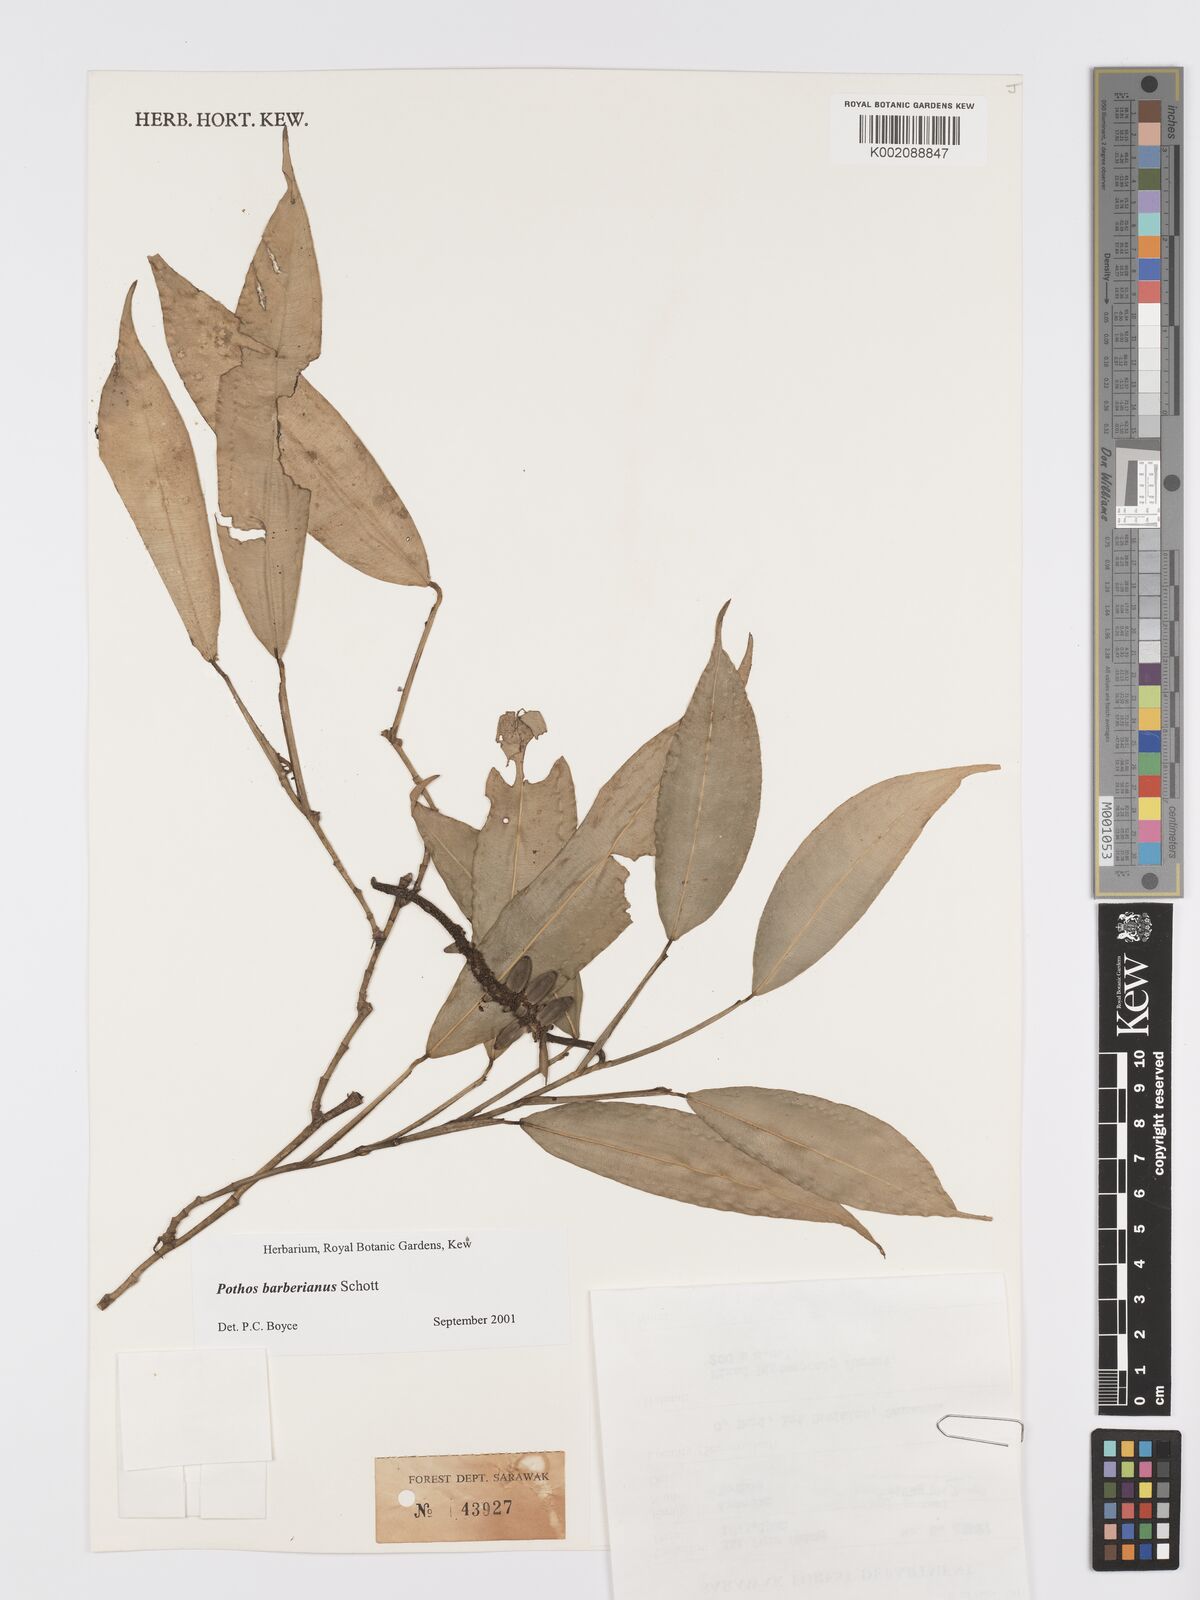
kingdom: Plantae
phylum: Tracheophyta
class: Liliopsida
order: Alismatales
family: Araceae
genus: Pothos
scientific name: Pothos barberianus
